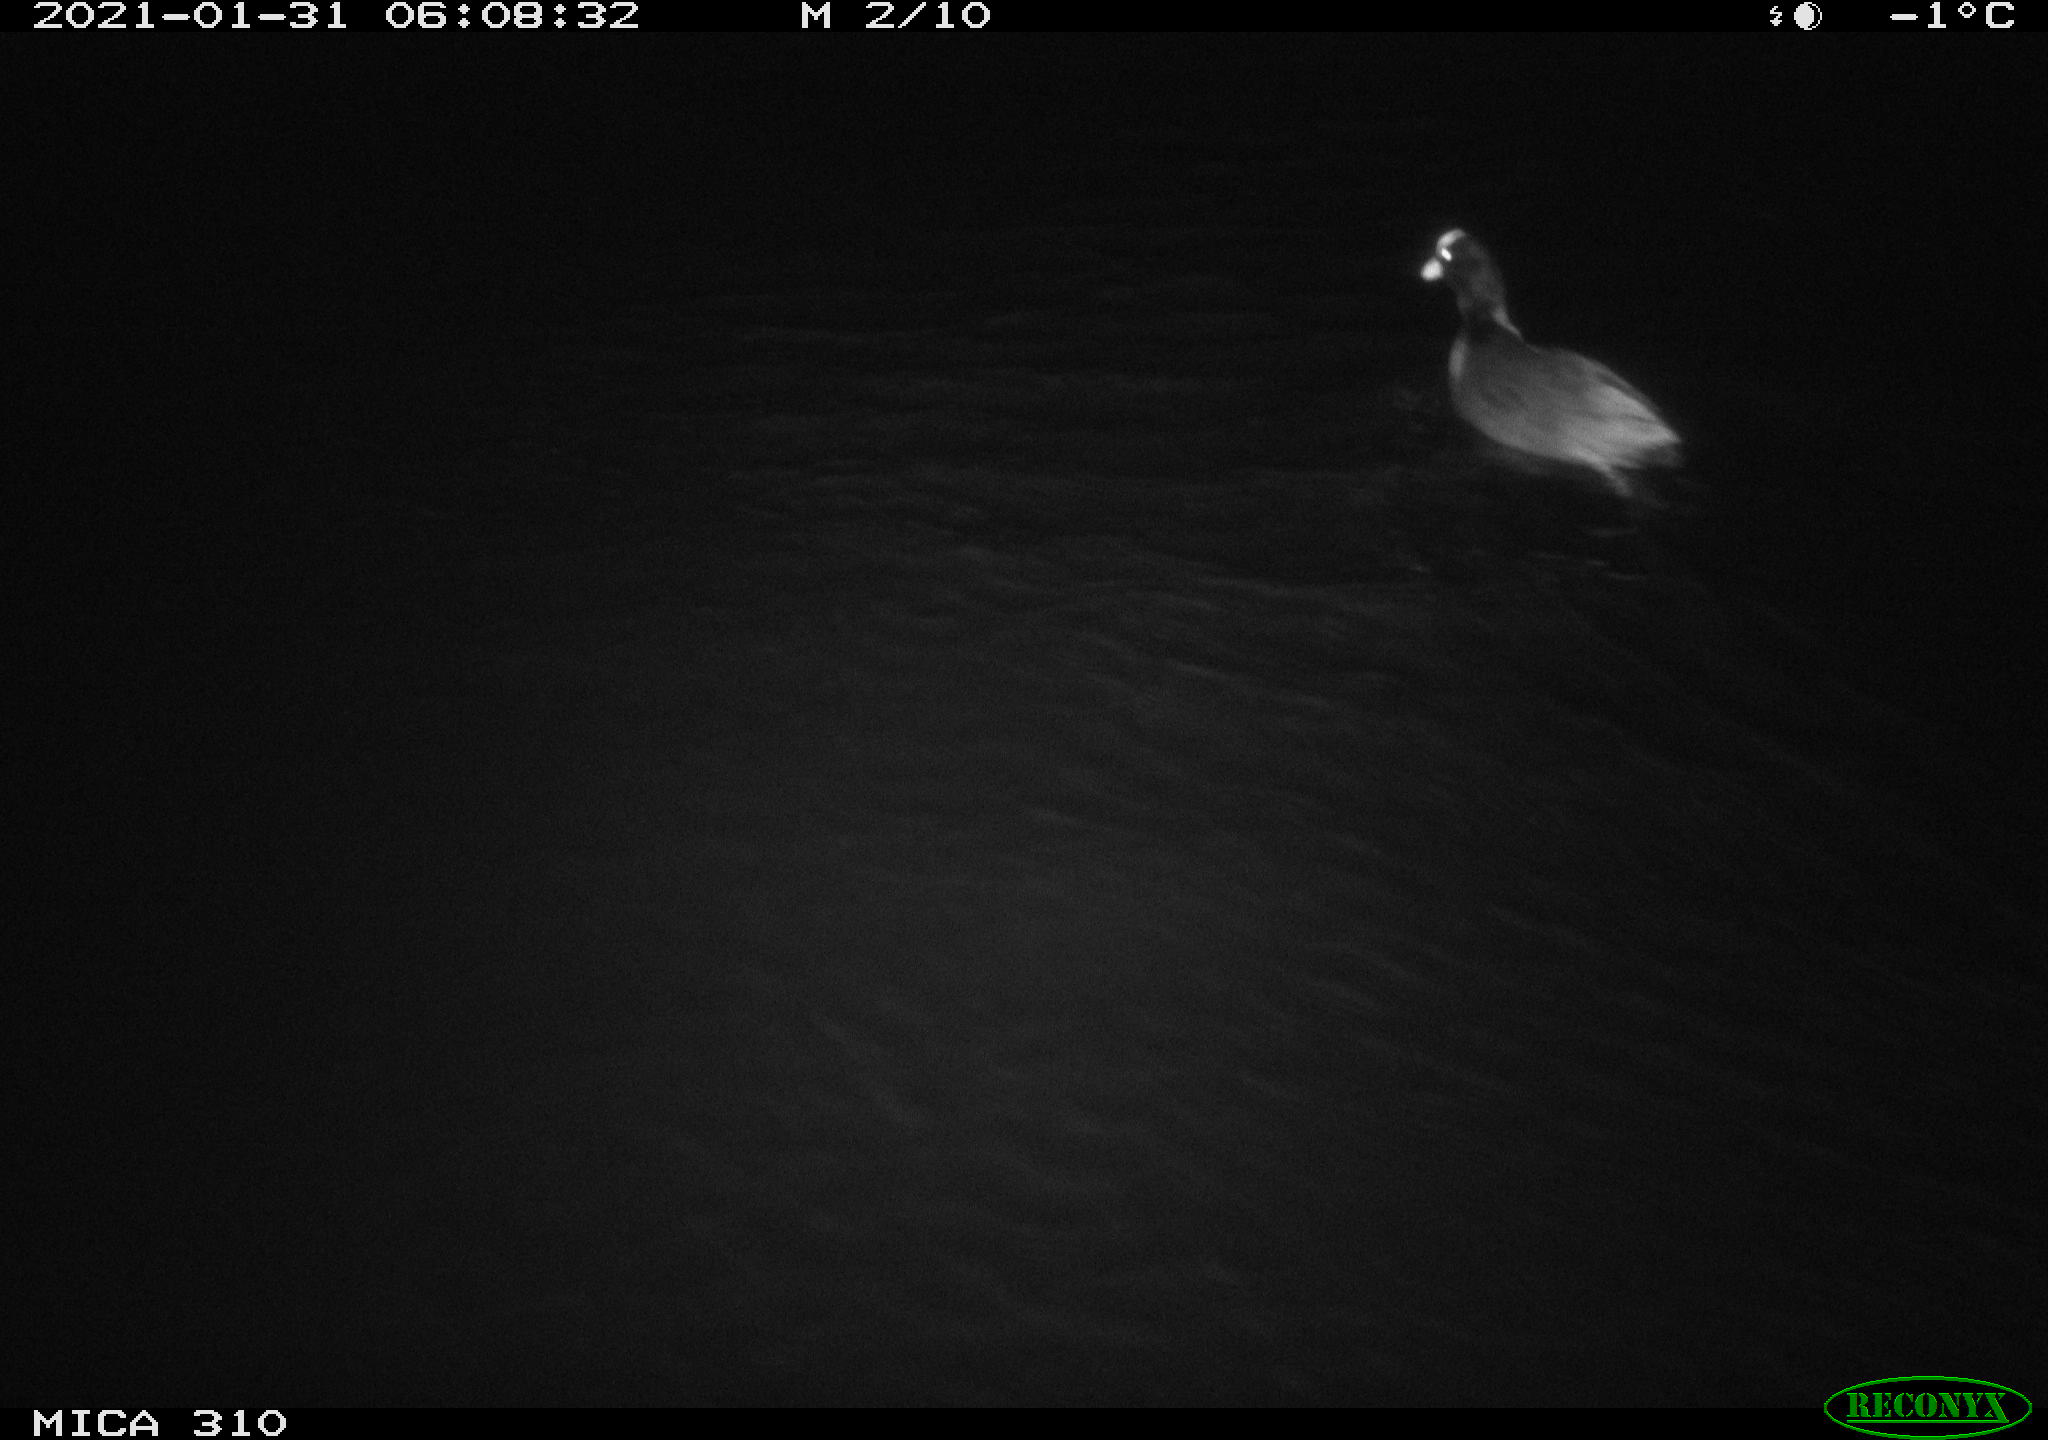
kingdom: Animalia
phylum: Chordata
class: Aves
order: Gruiformes
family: Rallidae
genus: Fulica
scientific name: Fulica atra
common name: Eurasian coot
